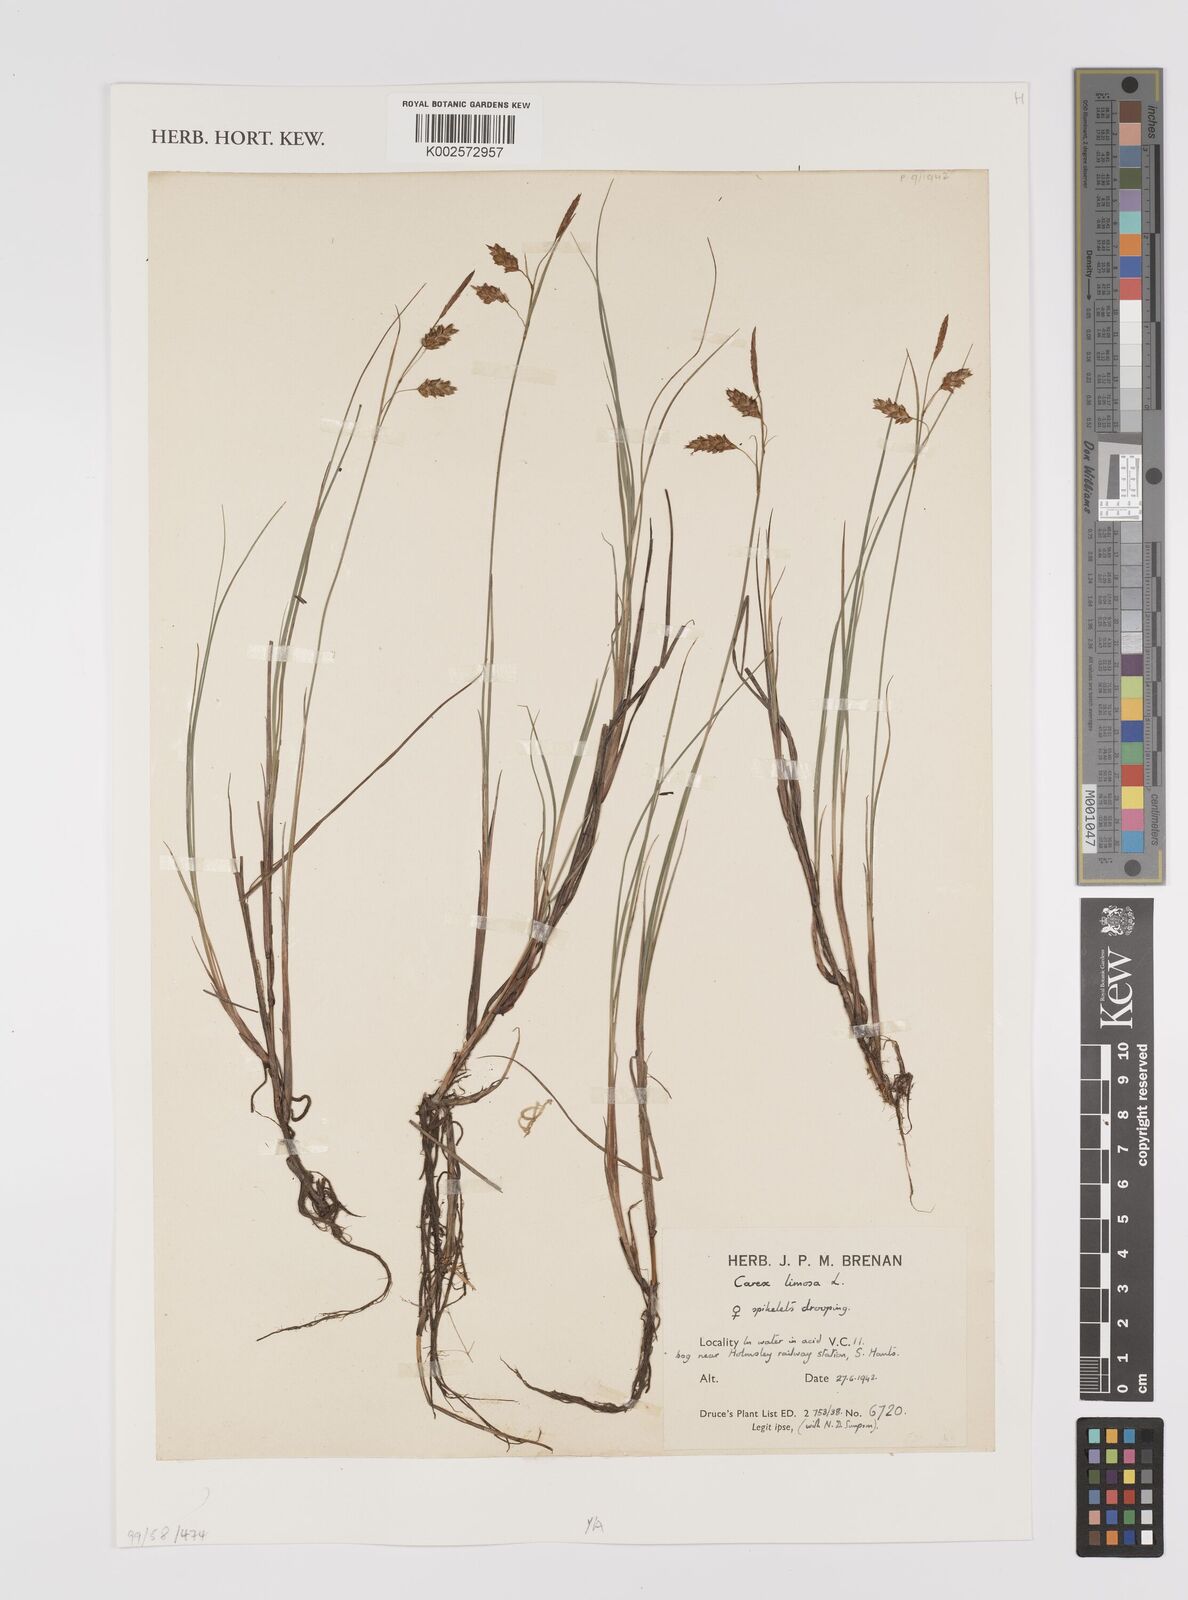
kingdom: Plantae
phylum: Tracheophyta
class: Liliopsida
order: Poales
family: Cyperaceae
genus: Carex
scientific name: Carex limosa
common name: Bog sedge
